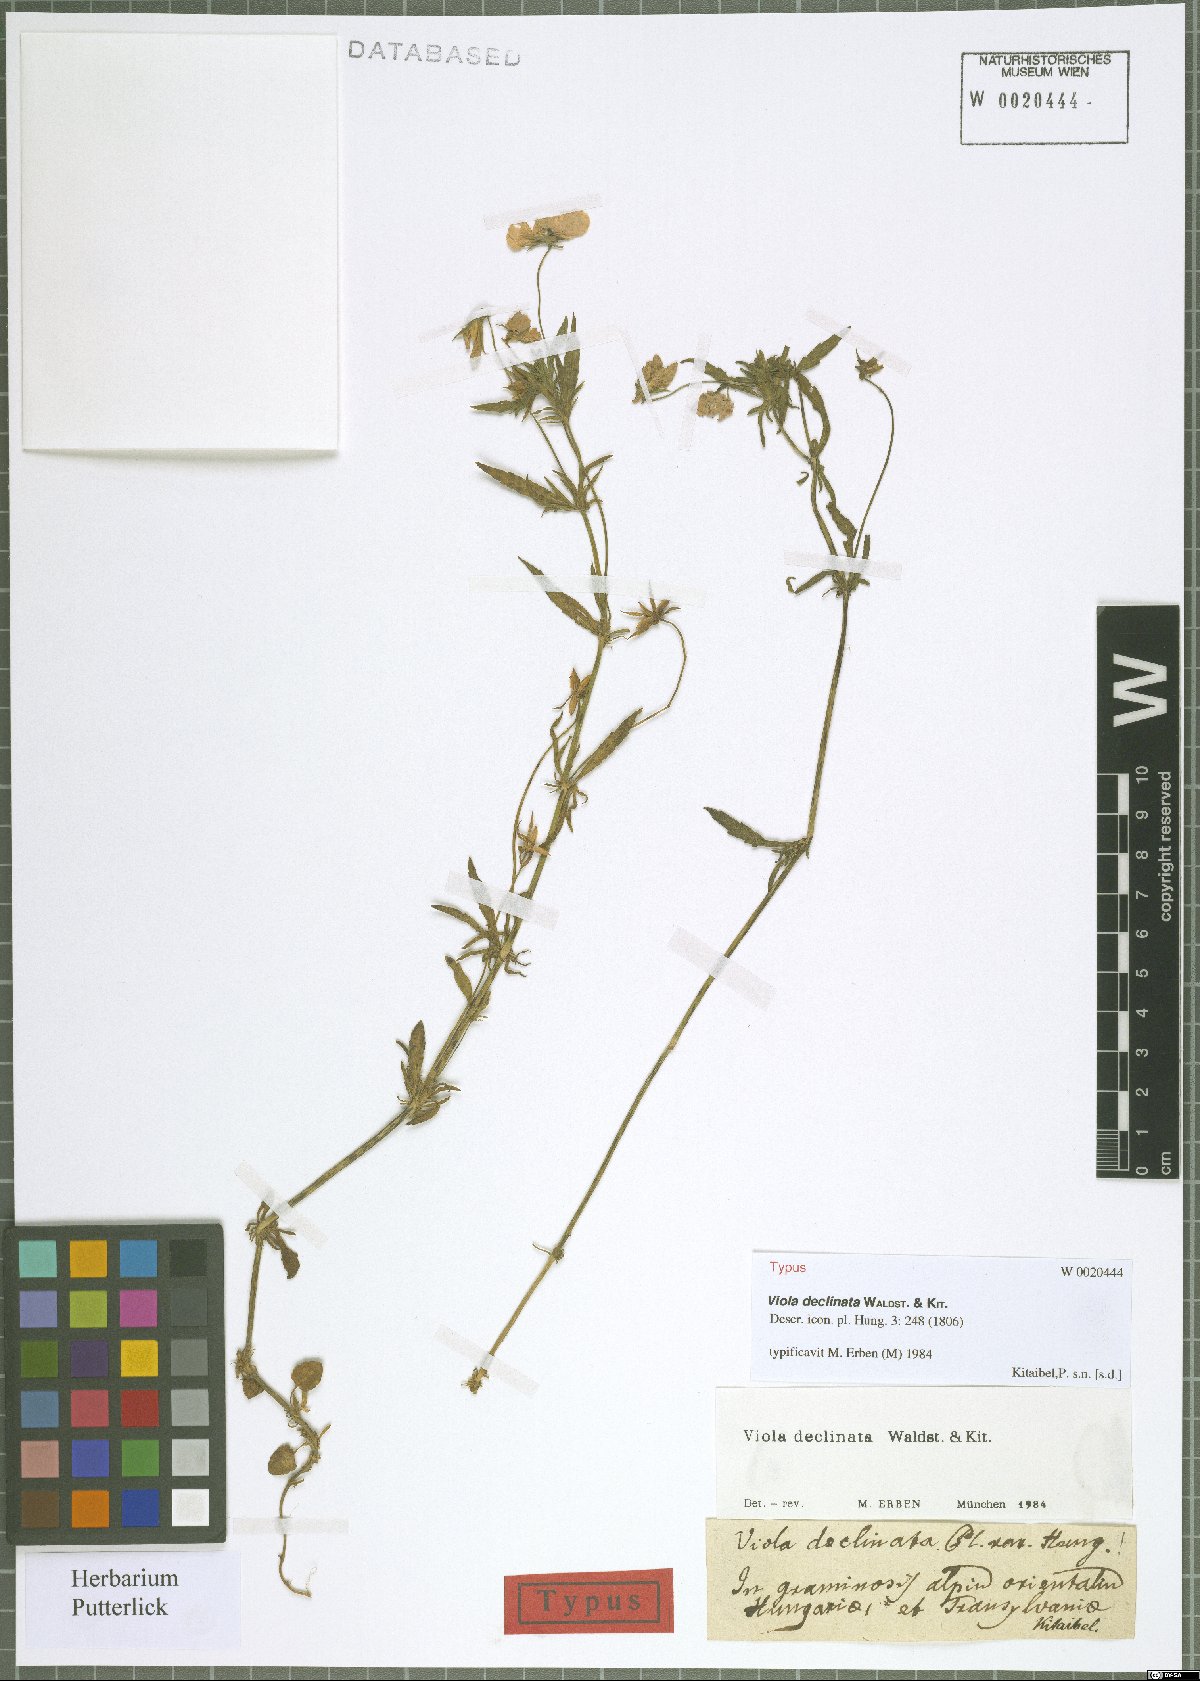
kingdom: Plantae
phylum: Tracheophyta
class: Magnoliopsida
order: Malpighiales
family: Violaceae
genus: Viola
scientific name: Viola declinata
